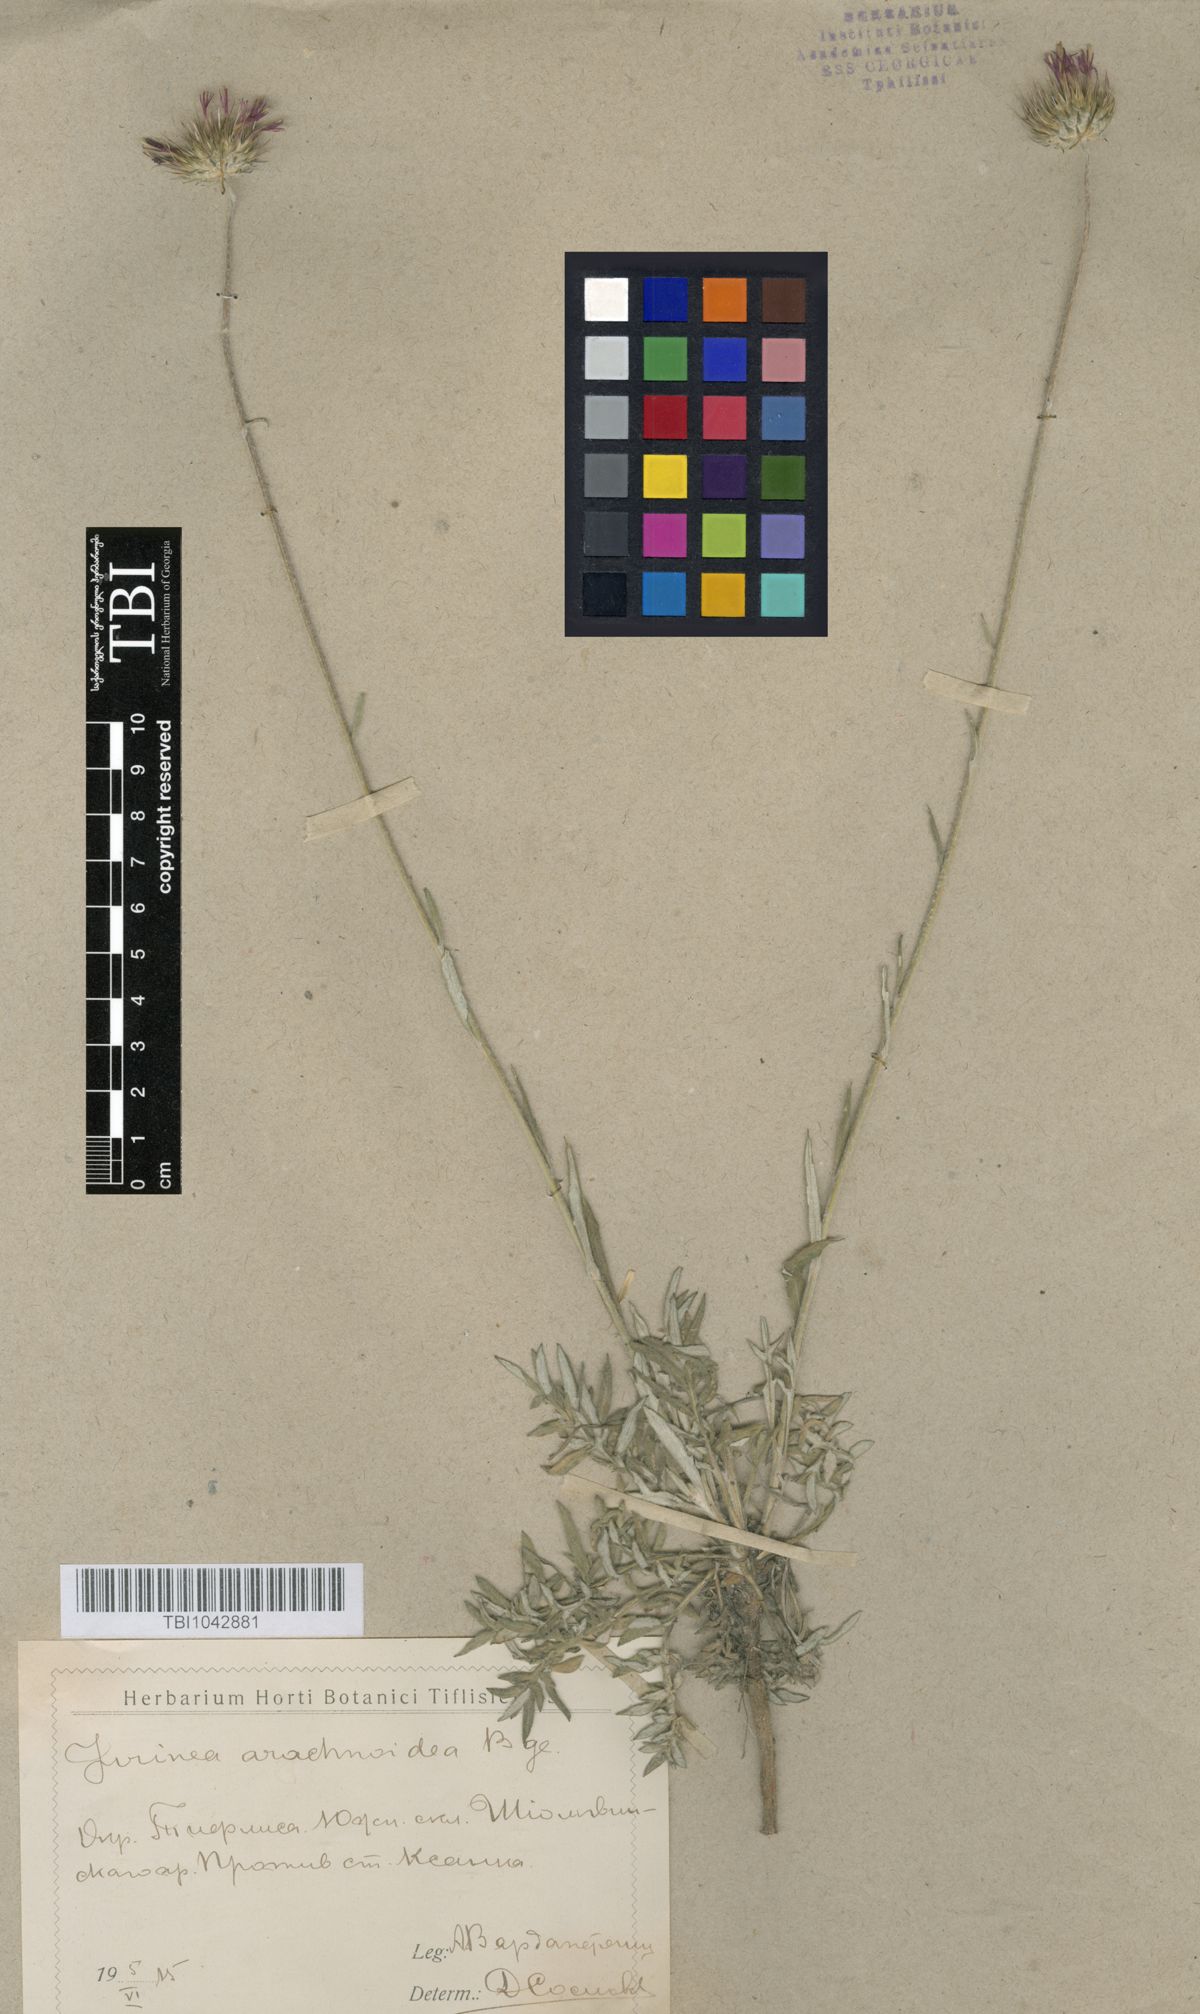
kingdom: Plantae
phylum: Tracheophyta
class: Magnoliopsida
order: Asterales
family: Asteraceae
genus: Jurinea
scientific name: Jurinea blanda
